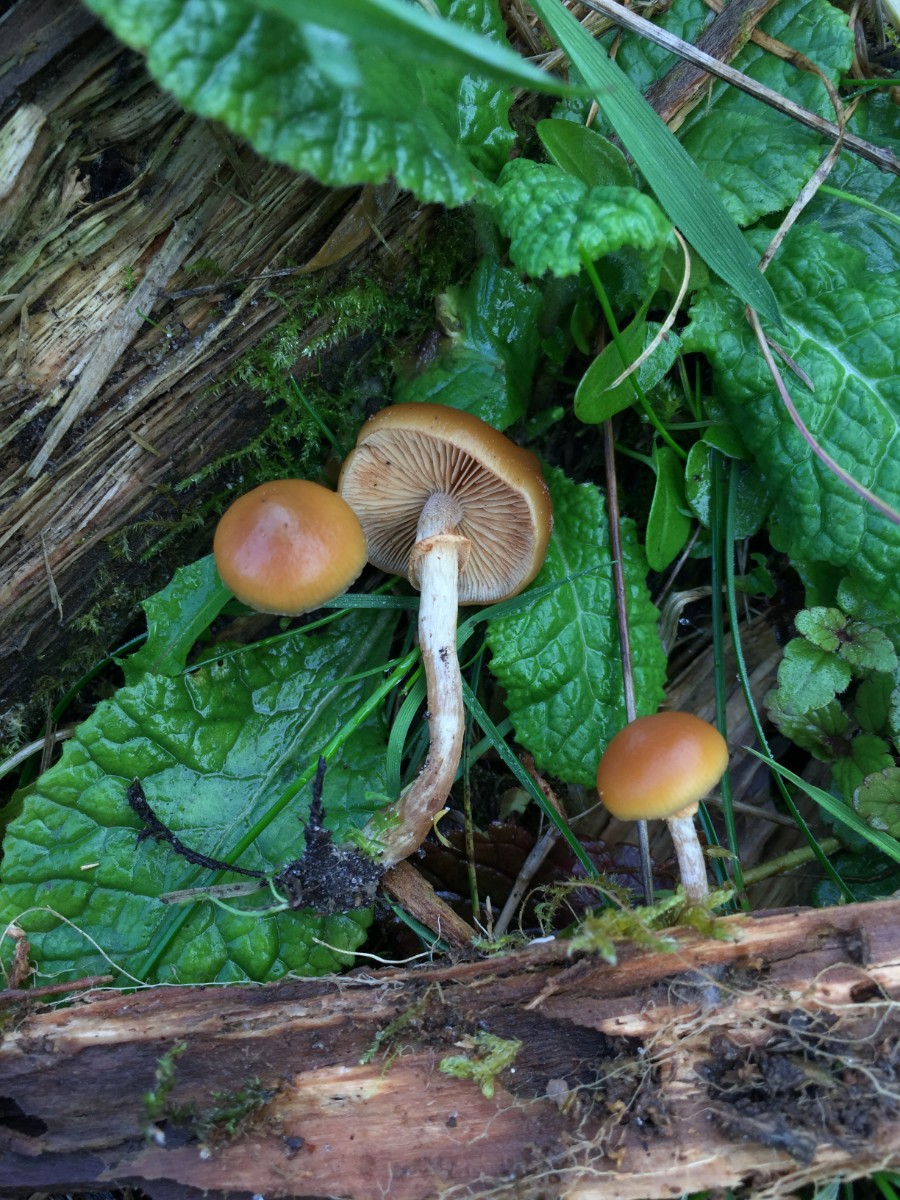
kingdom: Fungi
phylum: Basidiomycota
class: Agaricomycetes
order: Agaricales
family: Hymenogastraceae
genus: Galerina
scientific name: Galerina marginata
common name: randbæltet hjelmhat
